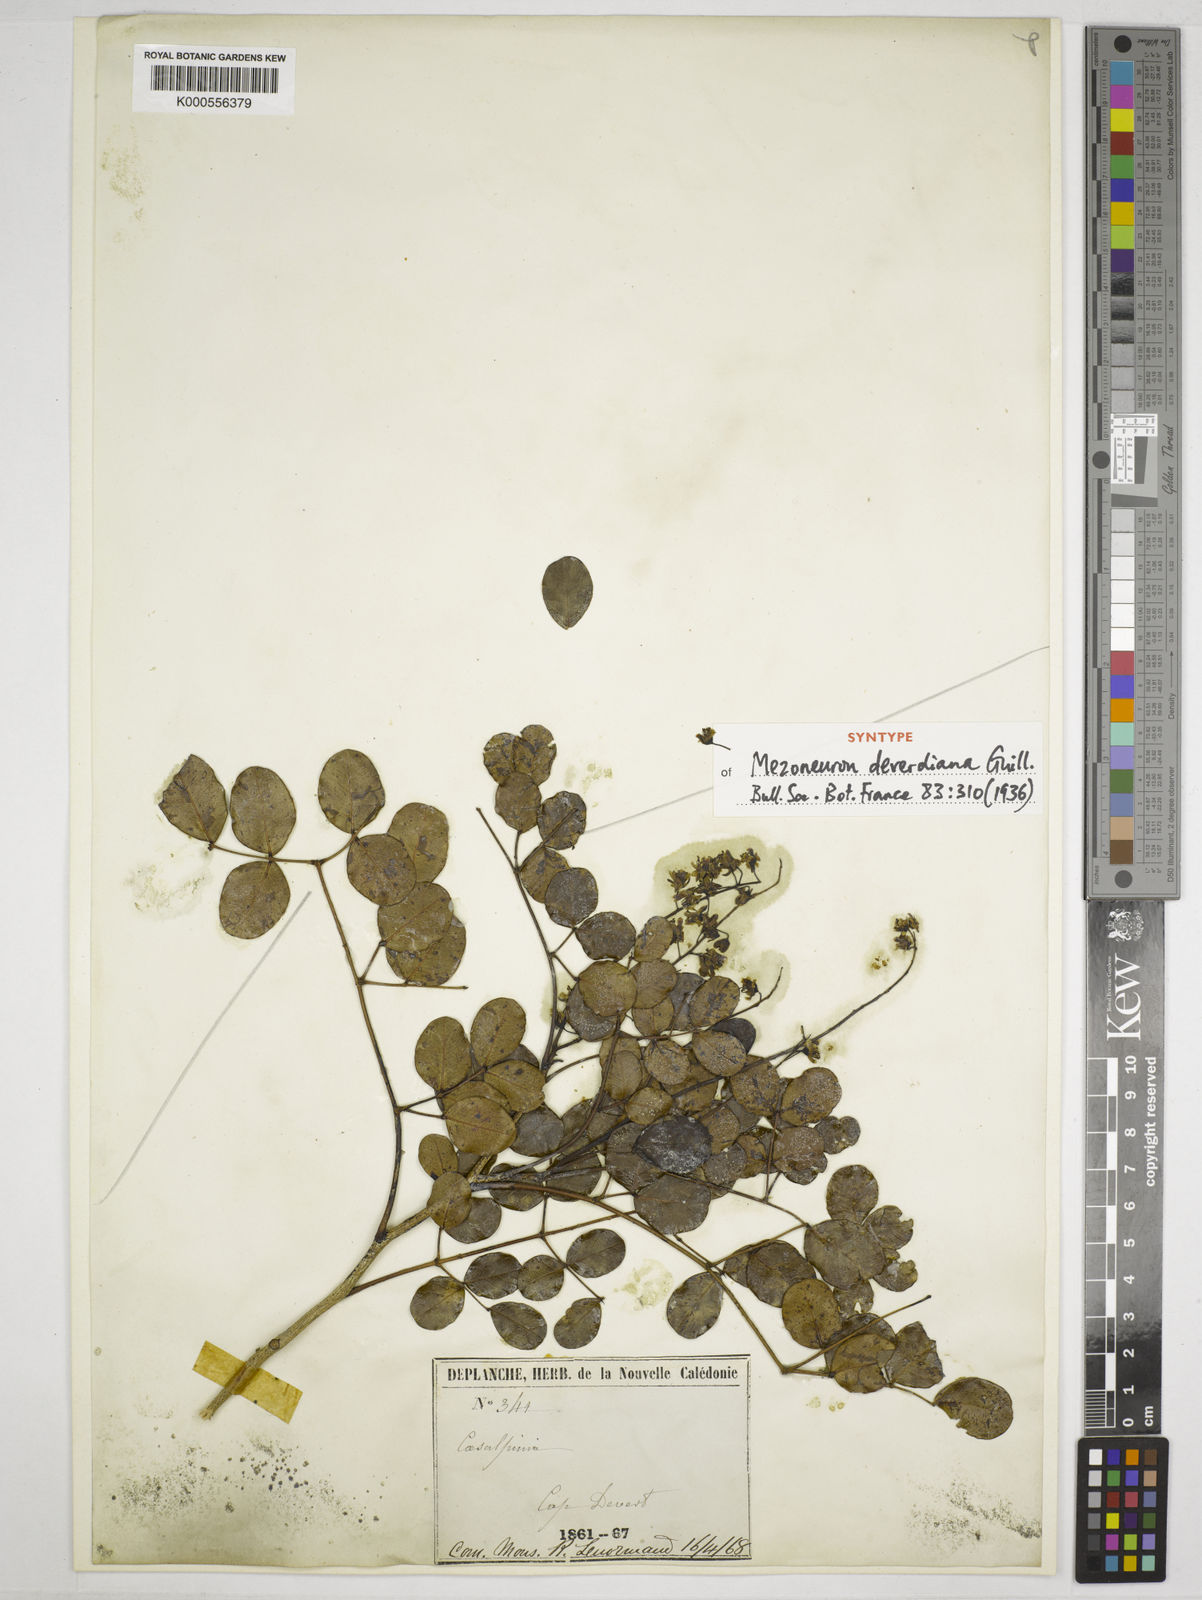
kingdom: Plantae
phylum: Tracheophyta
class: Magnoliopsida
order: Fabales
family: Fabaceae
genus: Mezoneuron
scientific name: Mezoneuron montrouzieri
